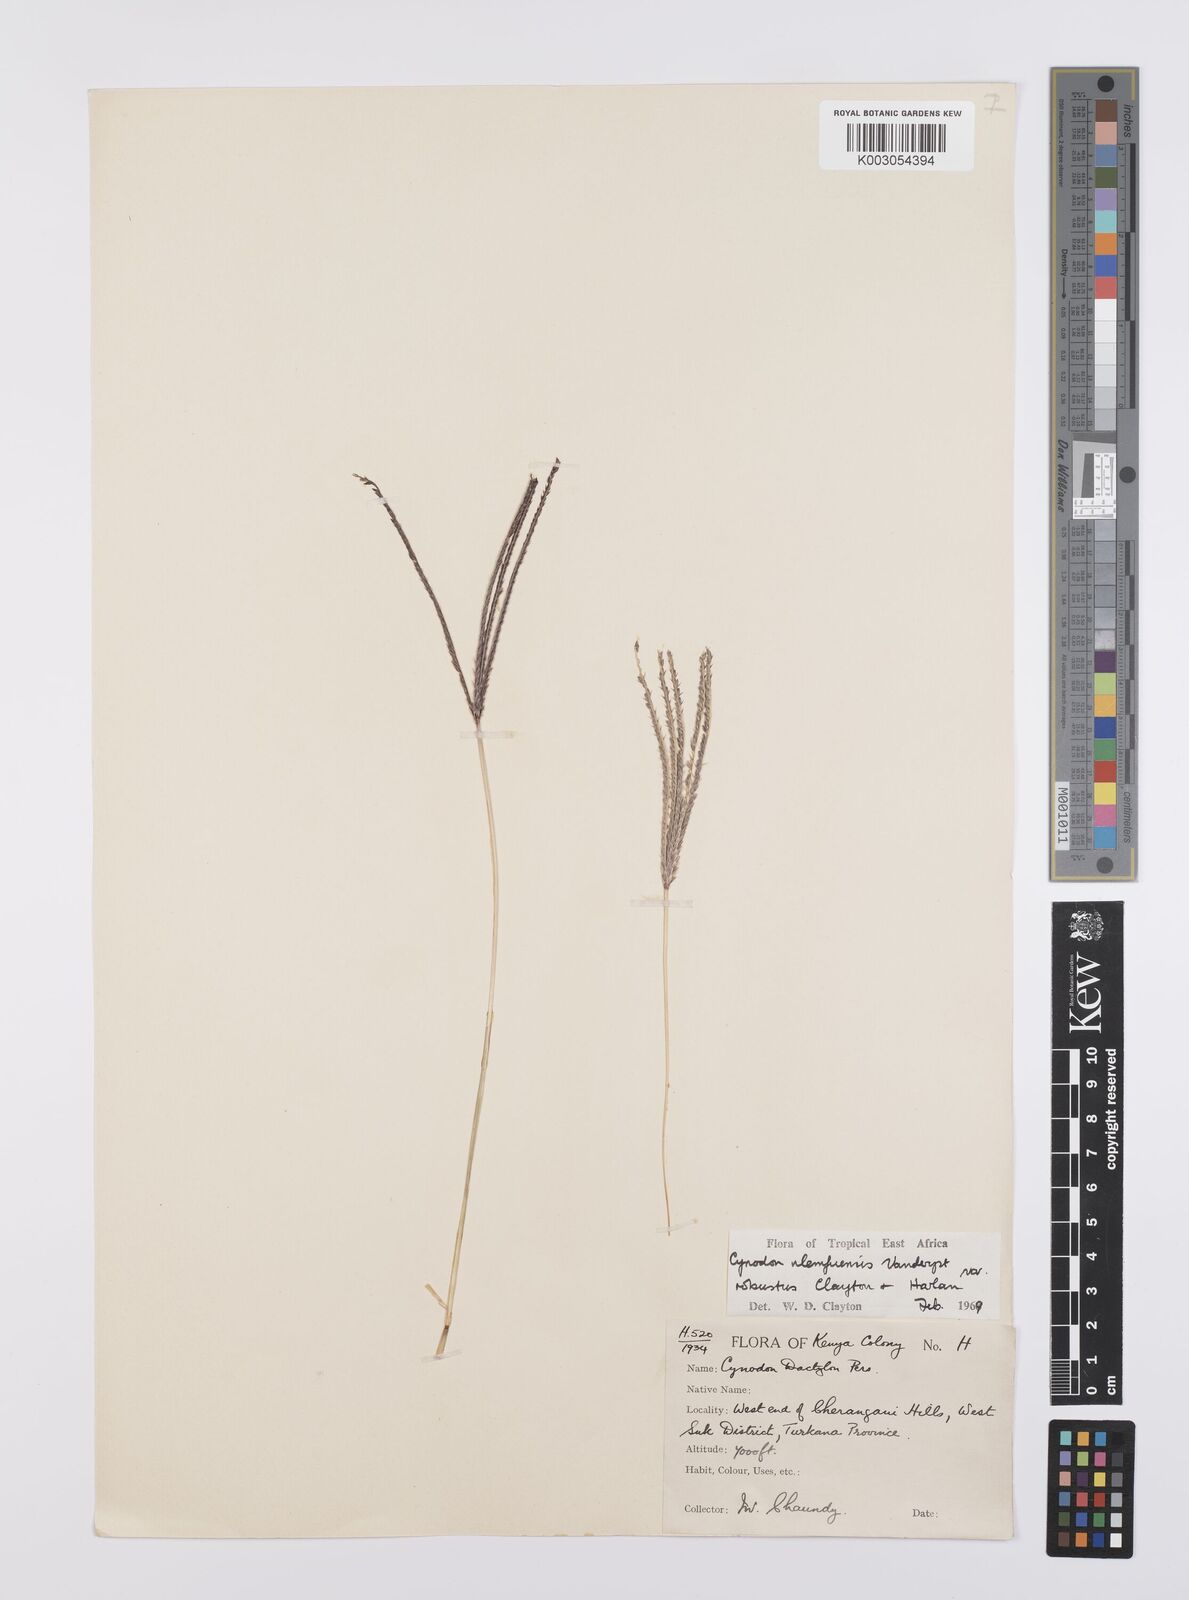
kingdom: Plantae
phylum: Tracheophyta
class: Liliopsida
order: Poales
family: Poaceae
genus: Cynodon
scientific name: Cynodon nlemfuensis
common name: African bermudagrass
